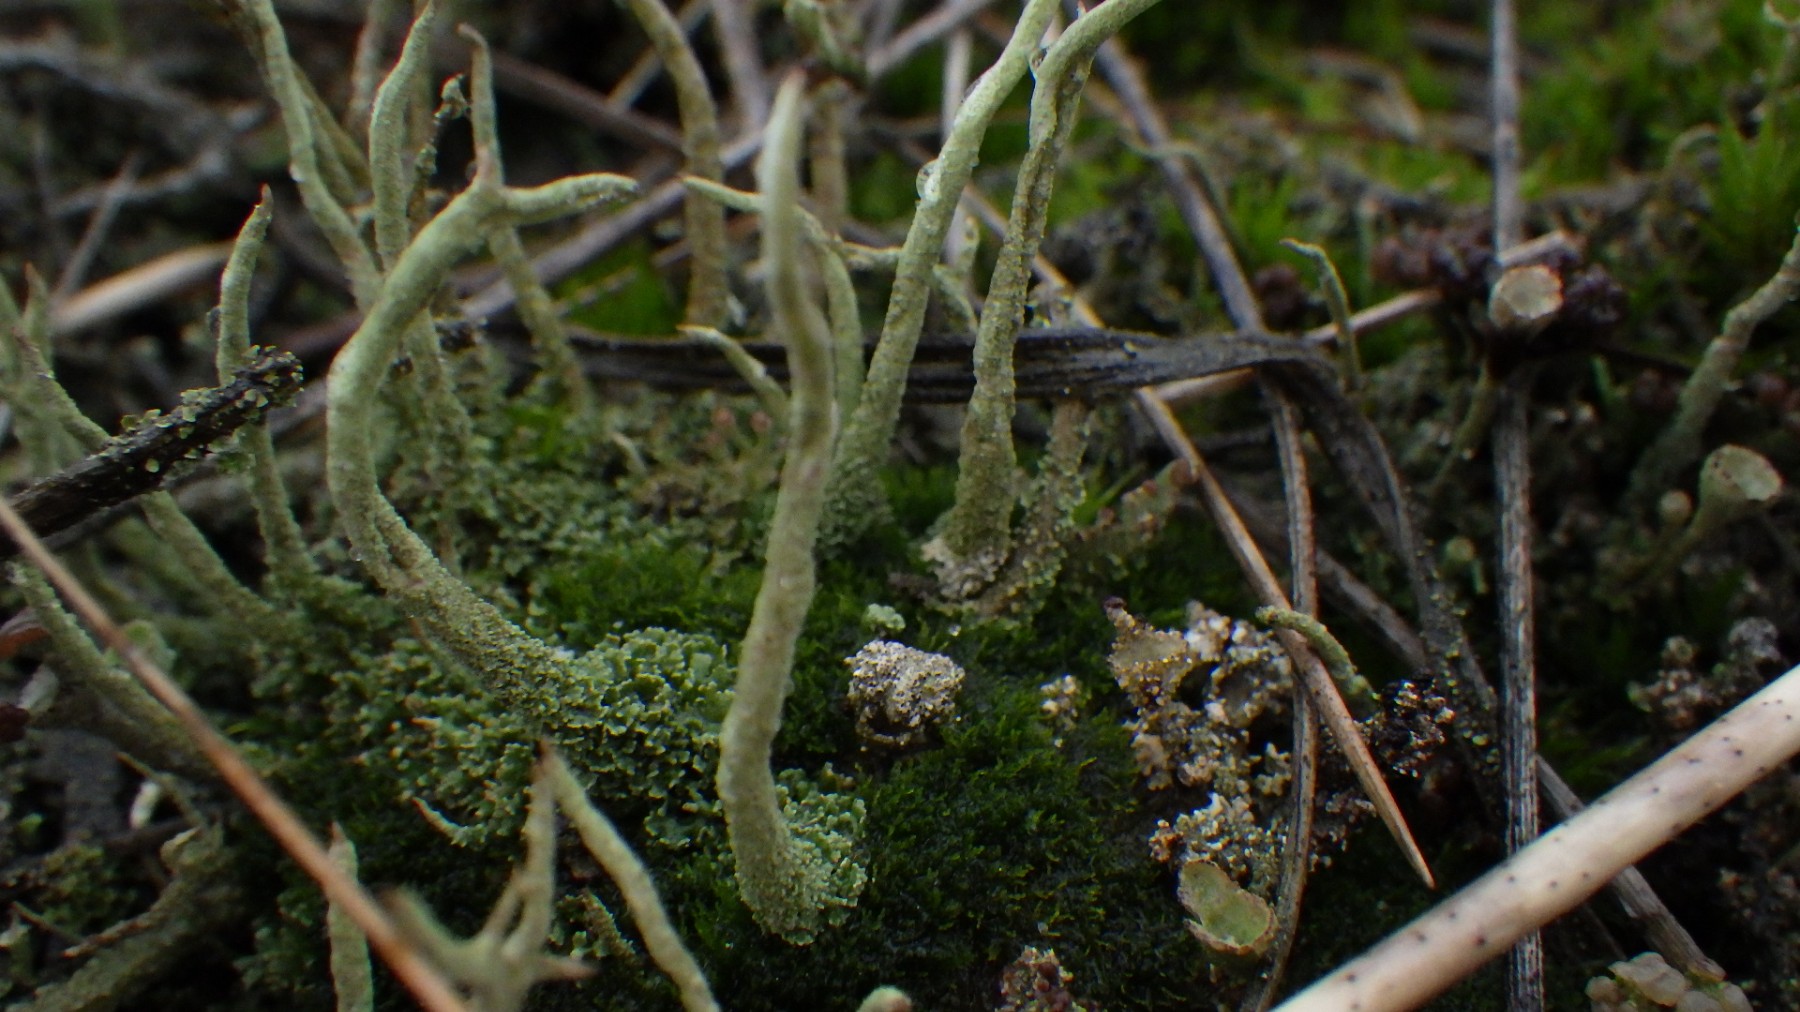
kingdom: Fungi
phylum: Ascomycota
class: Lecanoromycetes
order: Lecanorales
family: Cladoniaceae
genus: Cladonia
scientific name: Cladonia glauca
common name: grågrøn bægerlav
